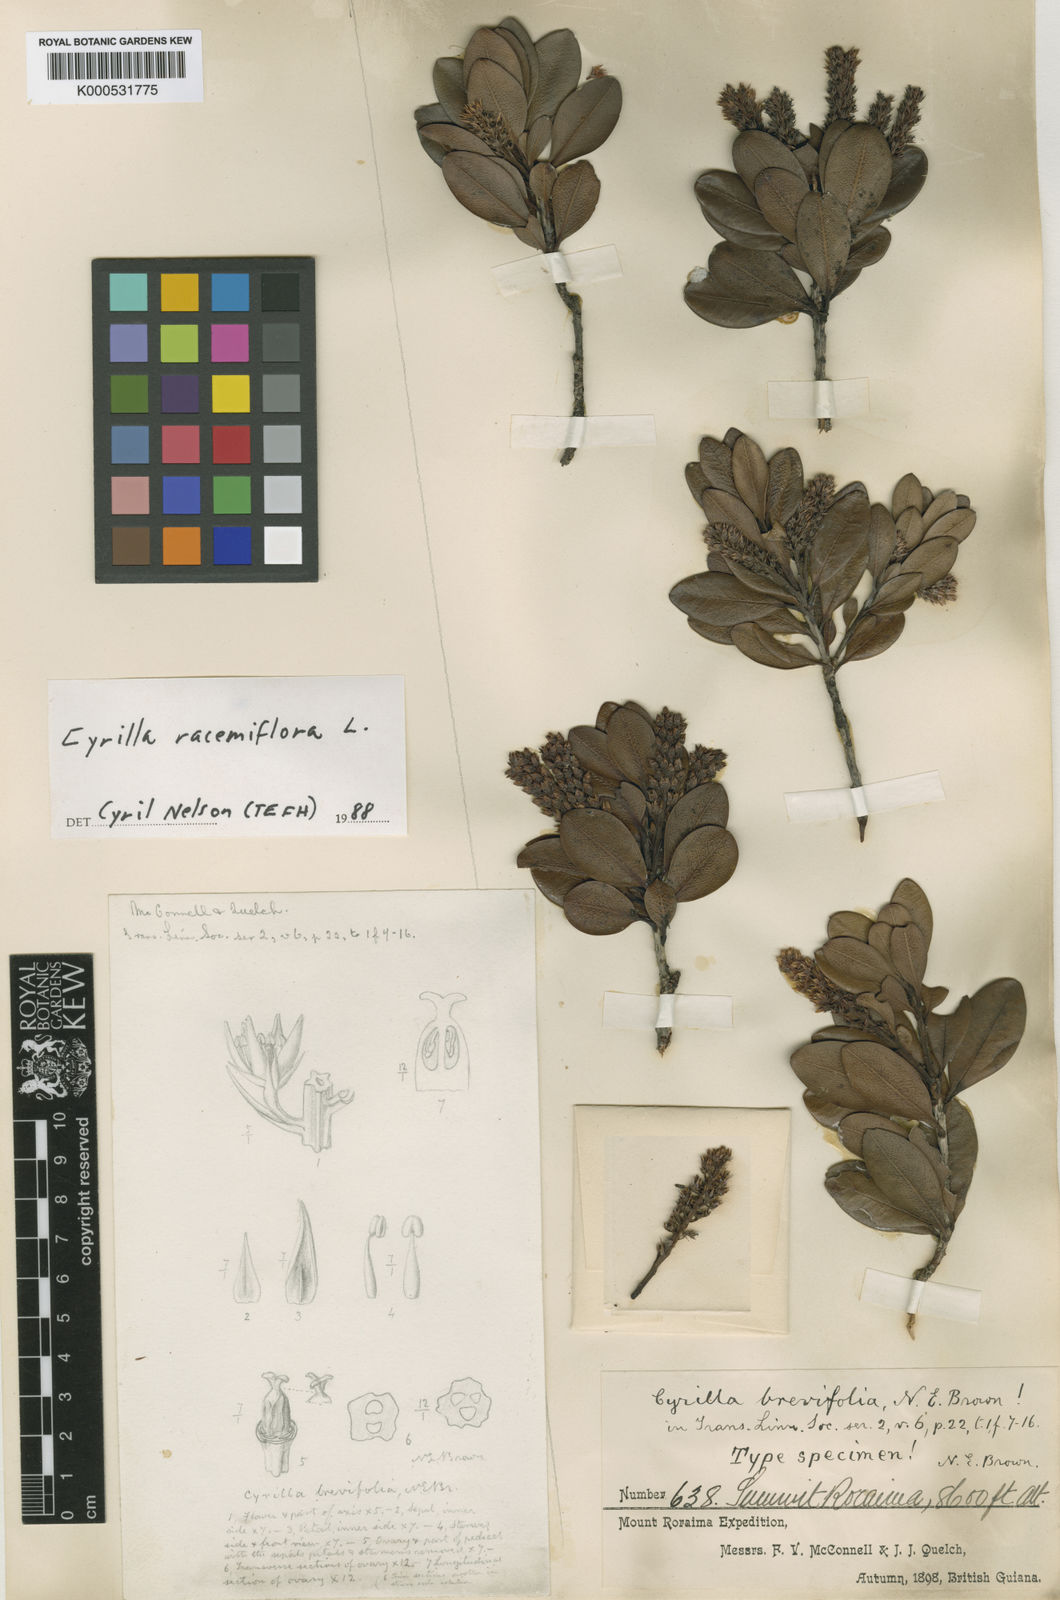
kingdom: Plantae
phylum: Tracheophyta
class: Magnoliopsida
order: Ericales
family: Cyrillaceae
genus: Cyrilla
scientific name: Cyrilla racemiflora
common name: Black titi
